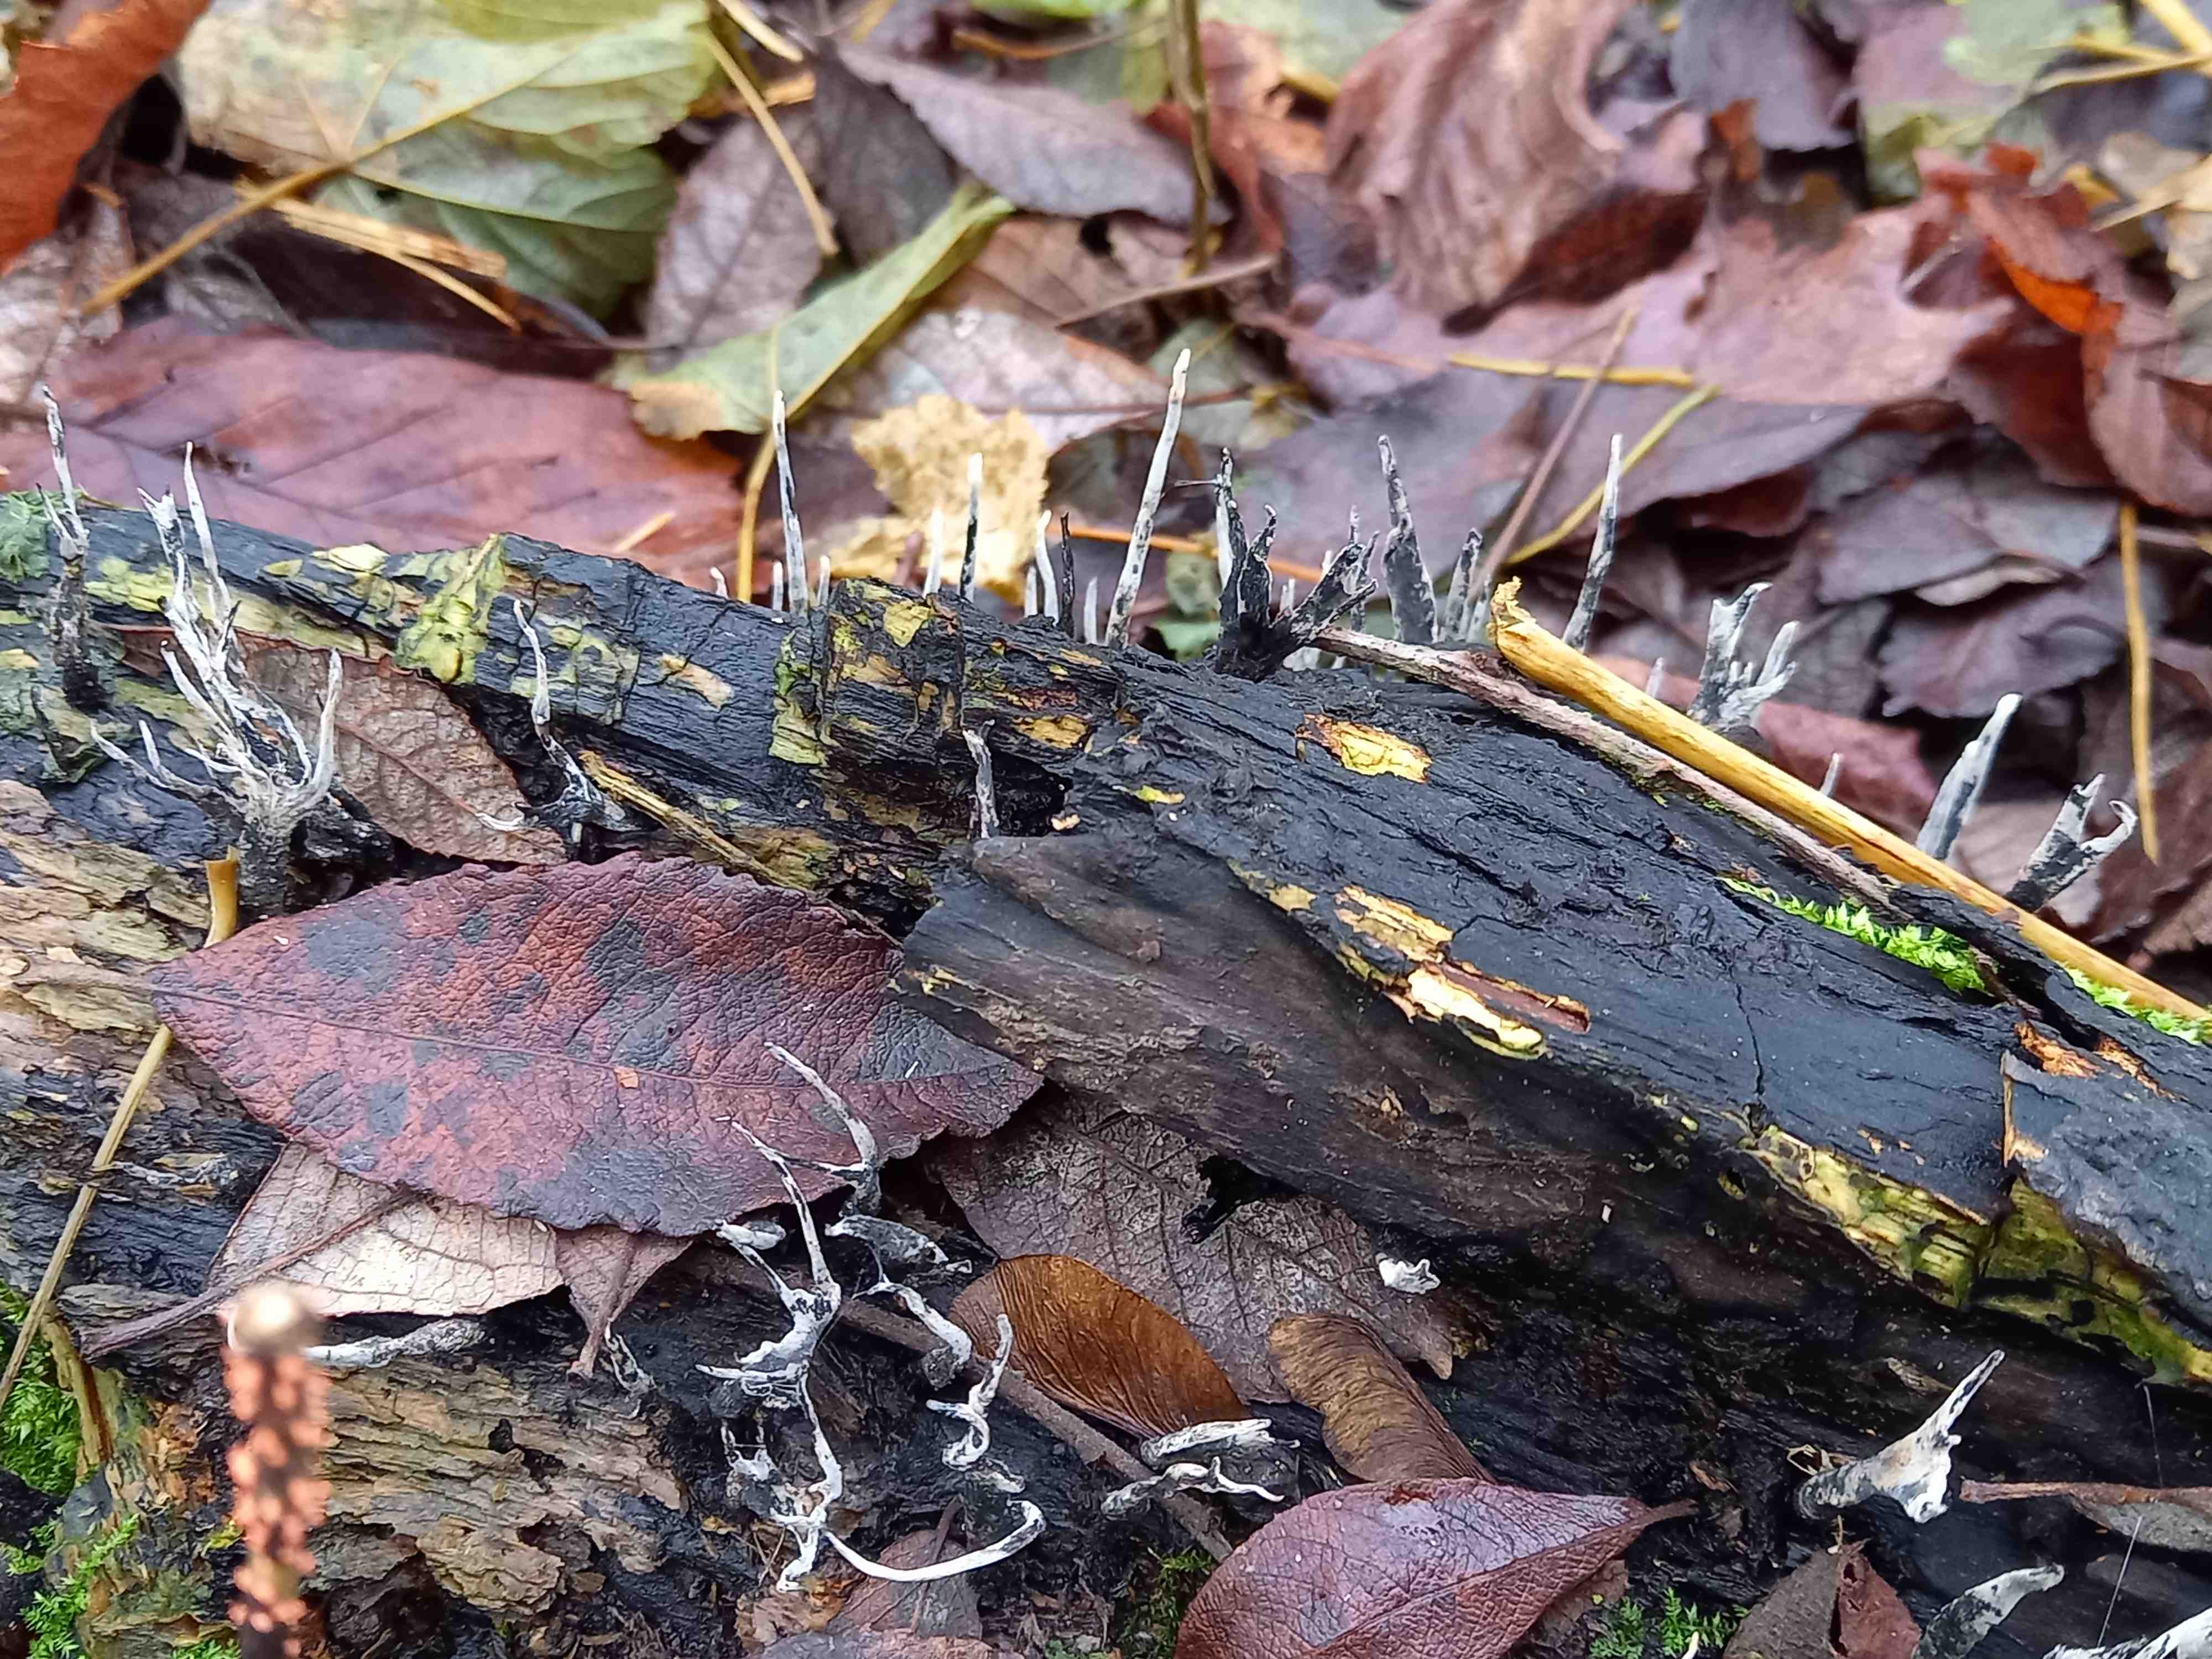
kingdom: Fungi
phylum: Ascomycota
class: Sordariomycetes
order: Xylariales
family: Xylariaceae
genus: Xylaria
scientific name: Xylaria hypoxylon
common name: grenet stødsvamp
